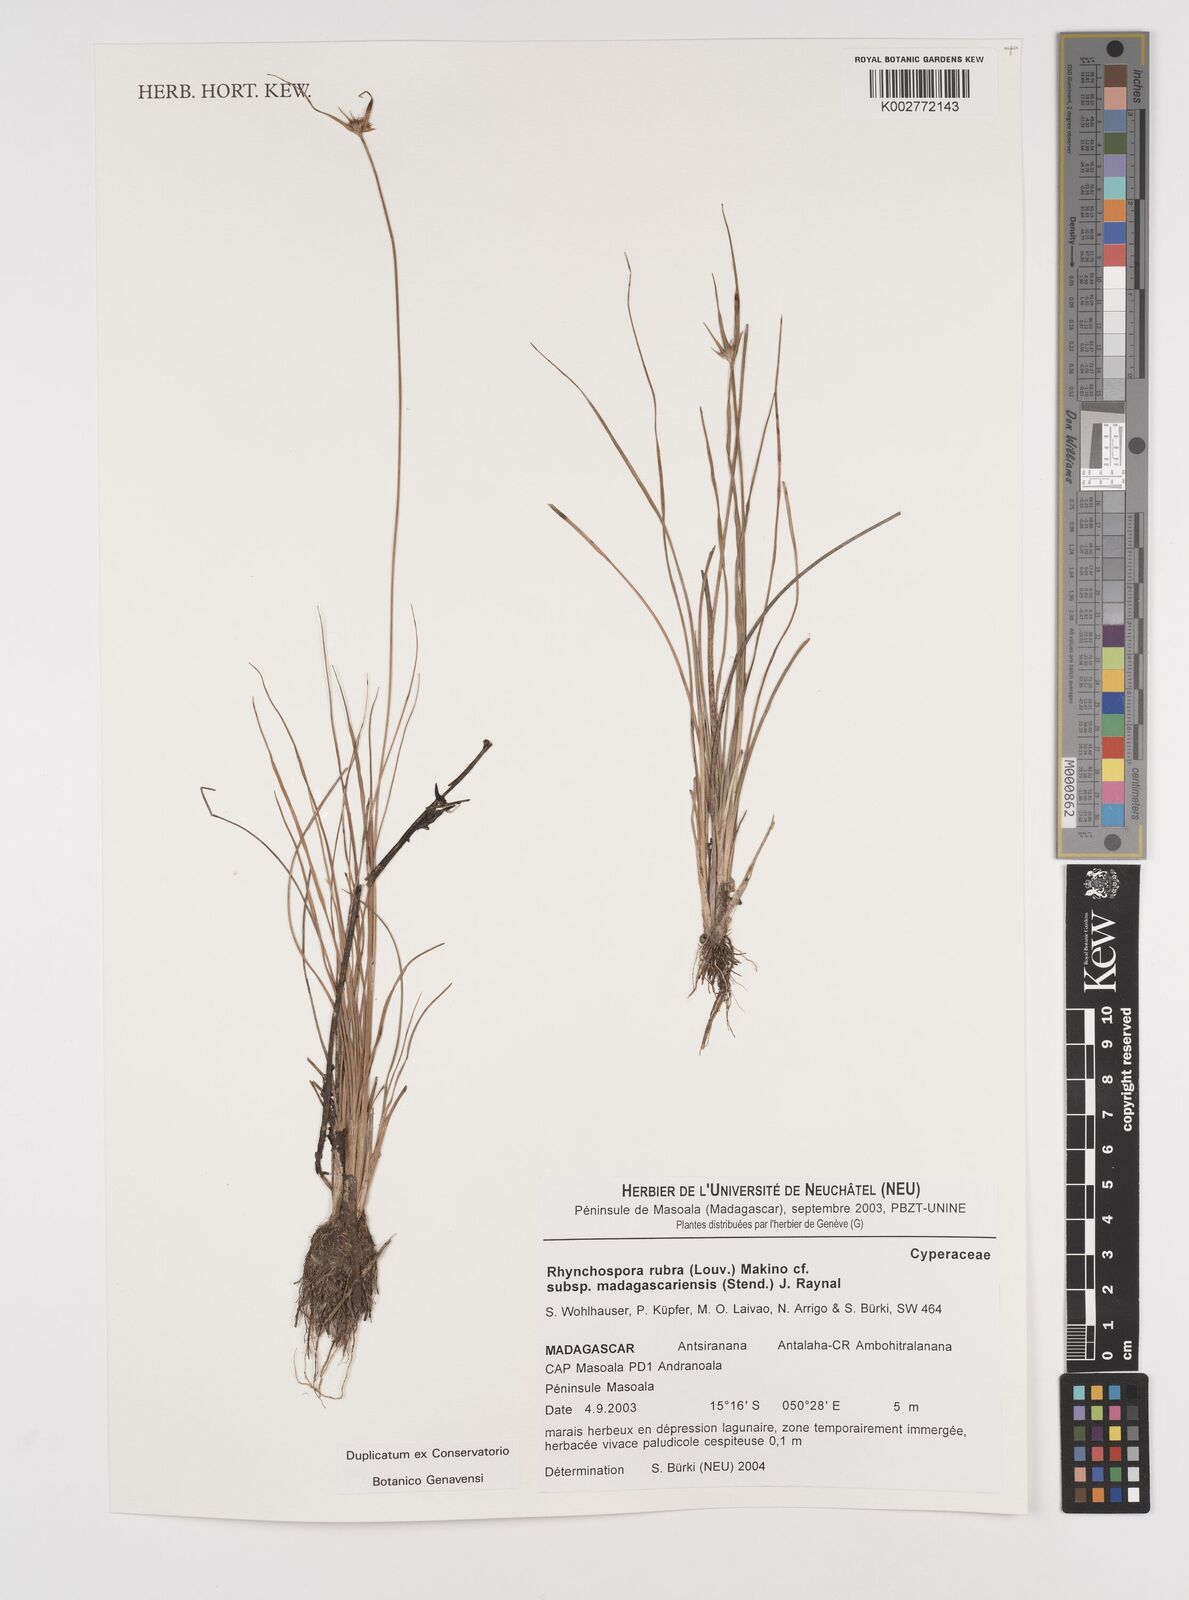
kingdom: Plantae
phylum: Tracheophyta
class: Liliopsida
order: Poales
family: Cyperaceae
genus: Rhynchospora
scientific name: Rhynchospora
